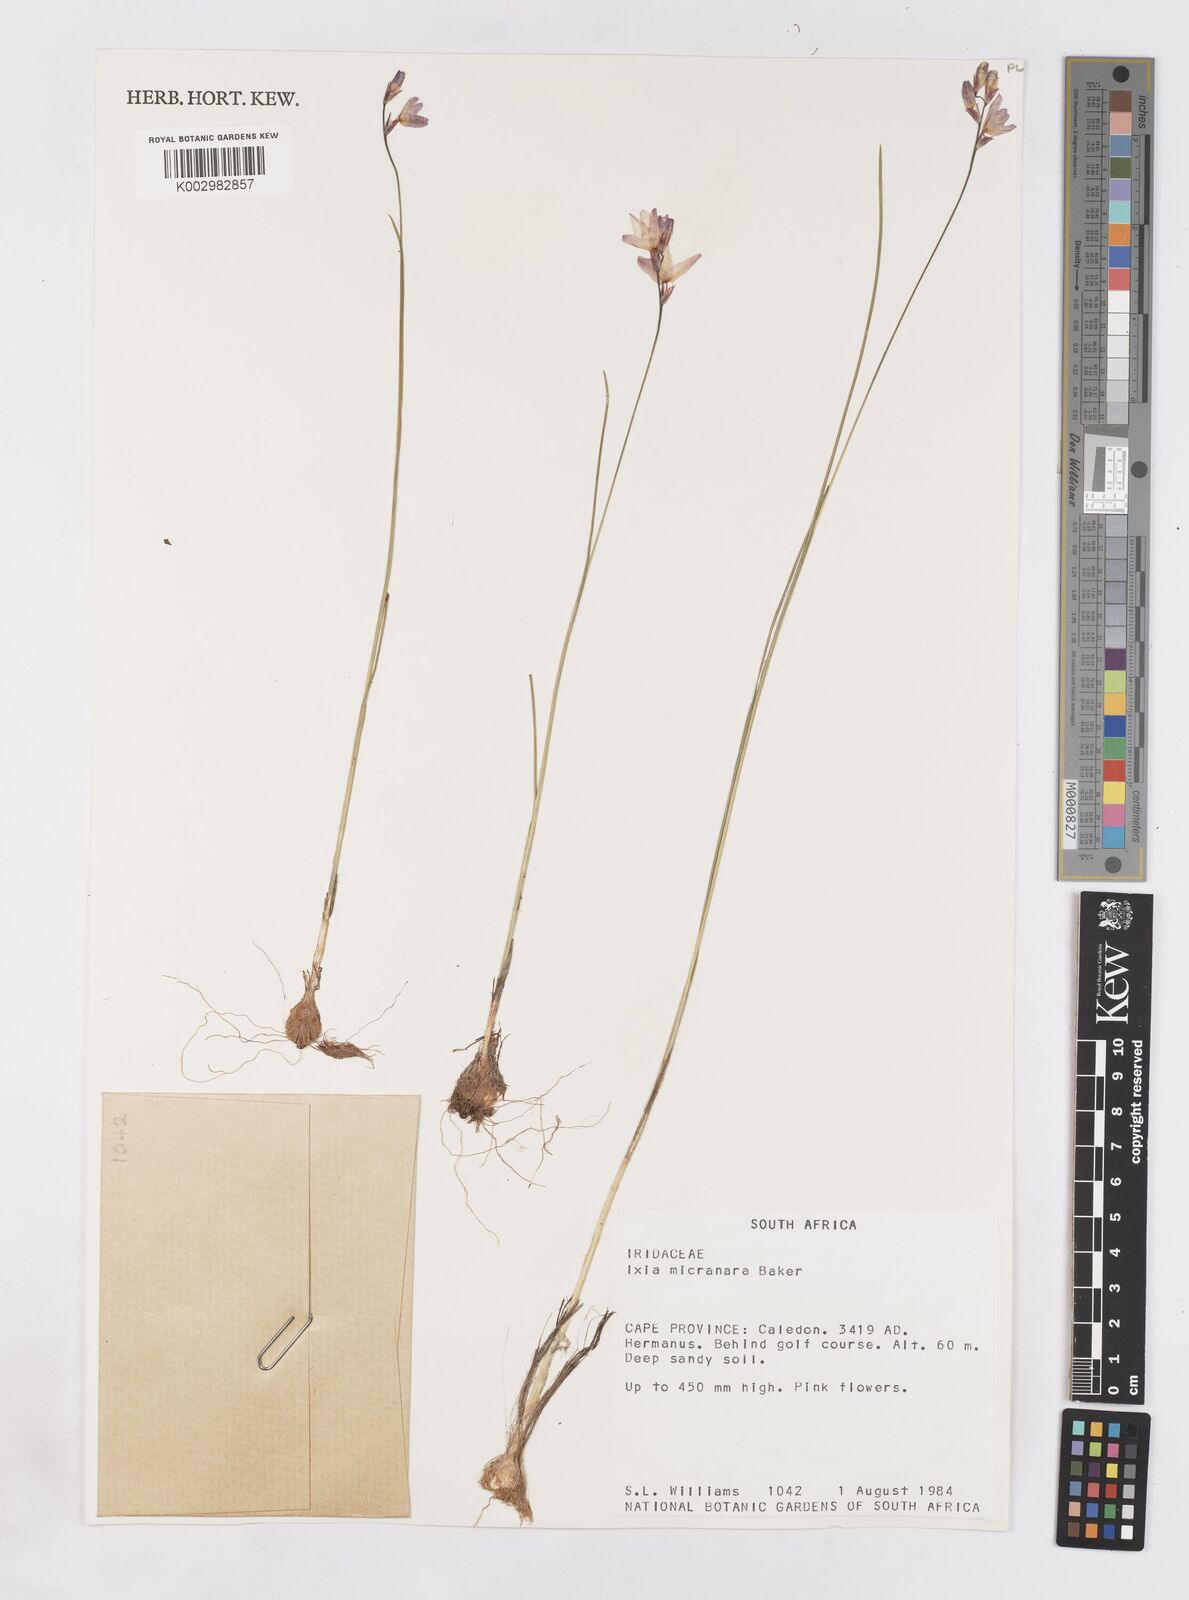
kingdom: Plantae
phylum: Tracheophyta
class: Liliopsida
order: Asparagales
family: Iridaceae
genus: Ixia
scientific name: Ixia micrandra
